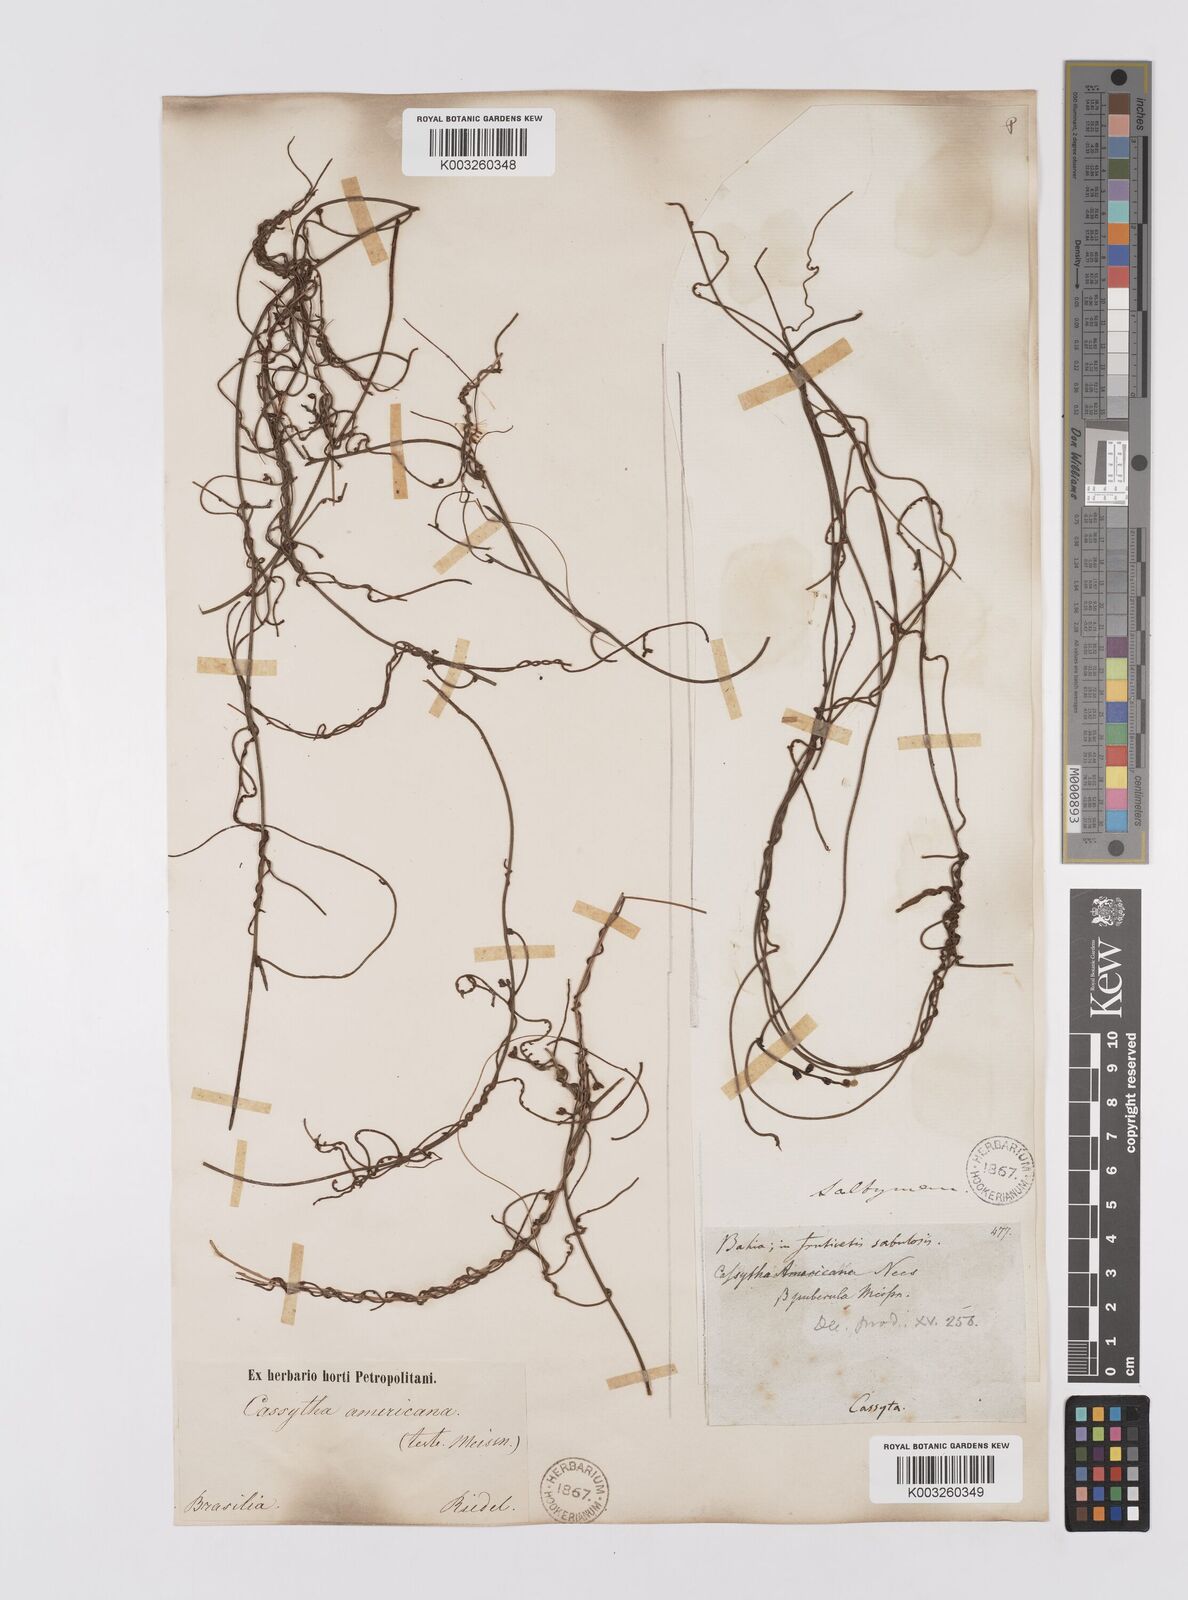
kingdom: Plantae
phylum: Tracheophyta
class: Magnoliopsida
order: Laurales
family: Lauraceae
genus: Cassytha
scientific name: Cassytha filiformis
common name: Dodder-laurel
